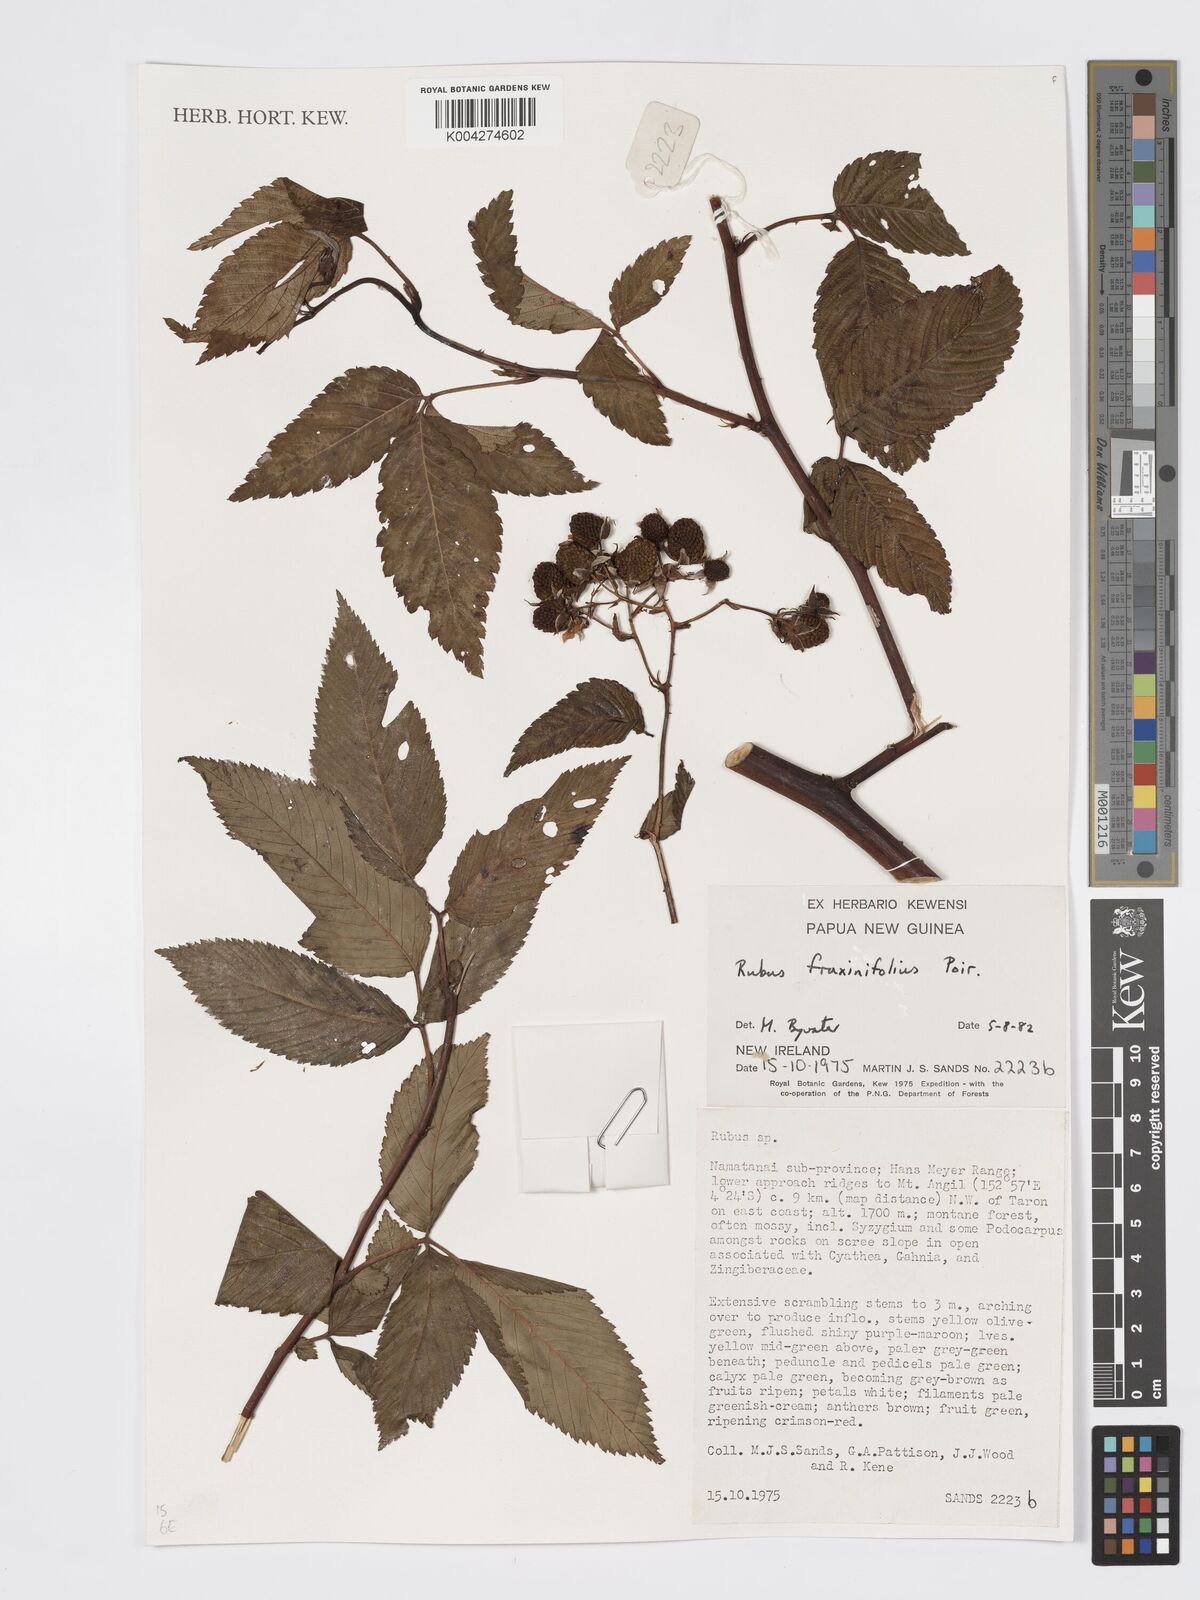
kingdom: Plantae
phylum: Tracheophyta
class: Magnoliopsida
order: Rosales
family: Rosaceae
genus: Rubus
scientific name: Rubus fraxinifolius
